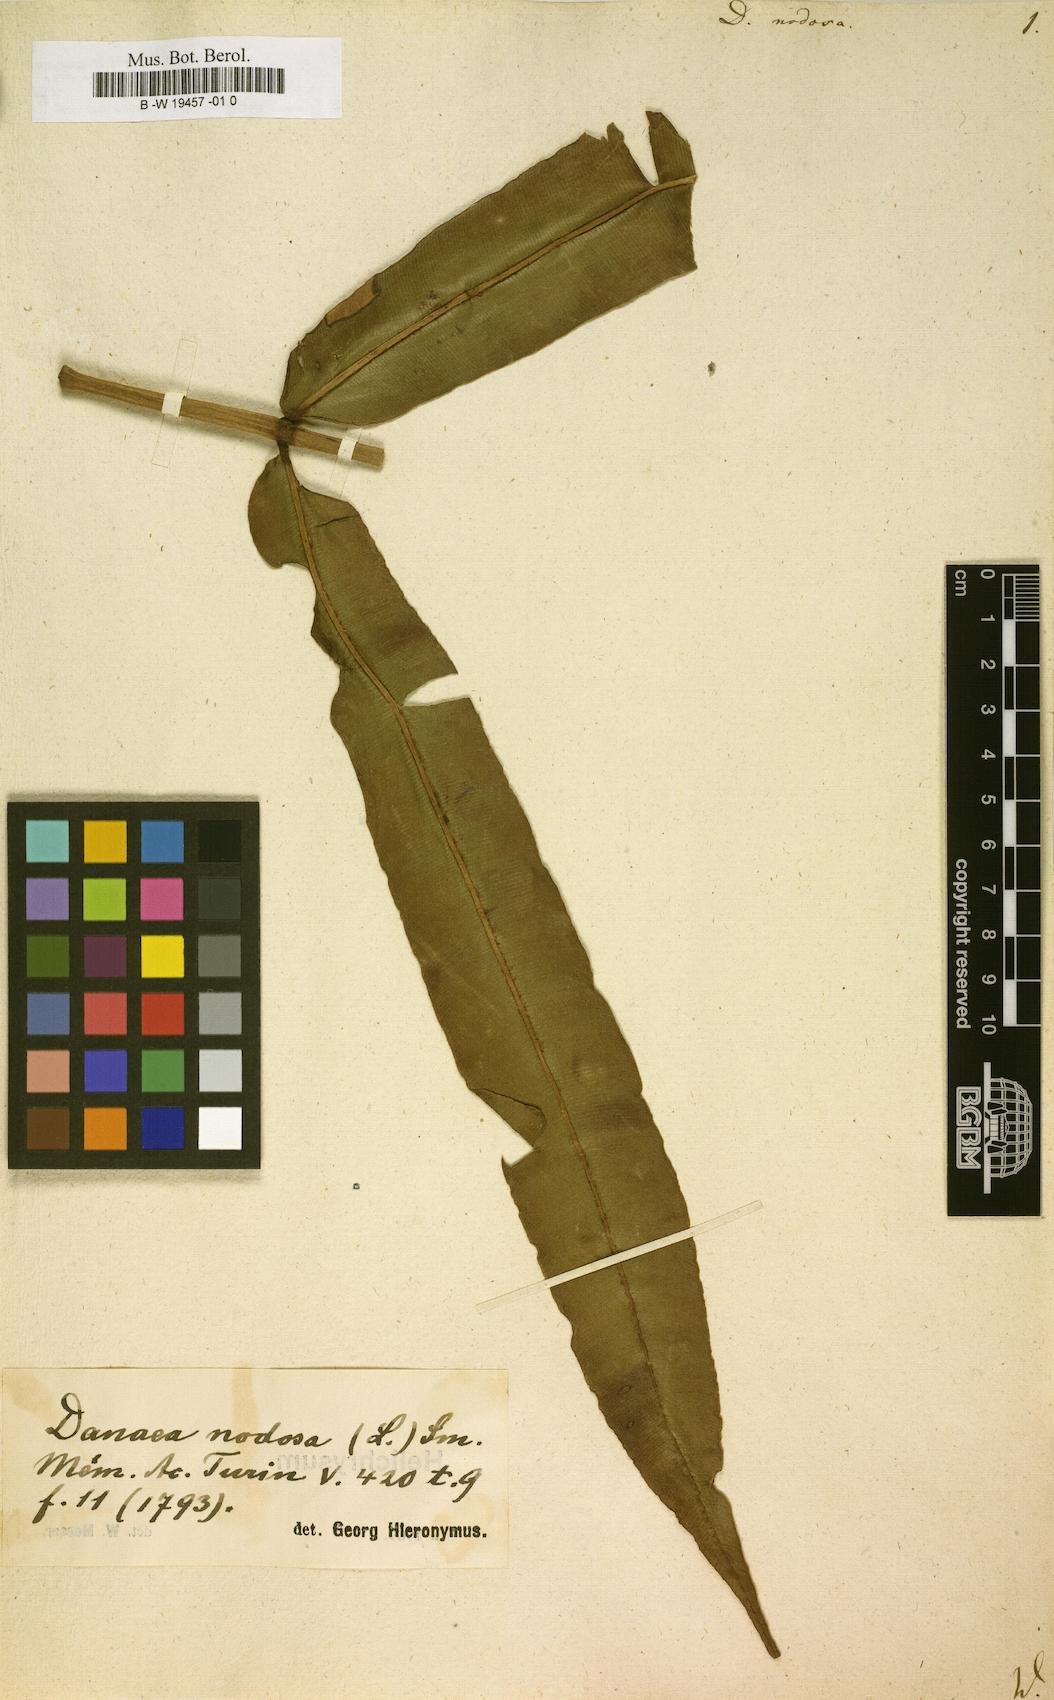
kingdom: Plantae
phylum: Tracheophyta
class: Polypodiopsida
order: Marattiales
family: Marattiaceae
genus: Danaea
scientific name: Danaea nodosa
